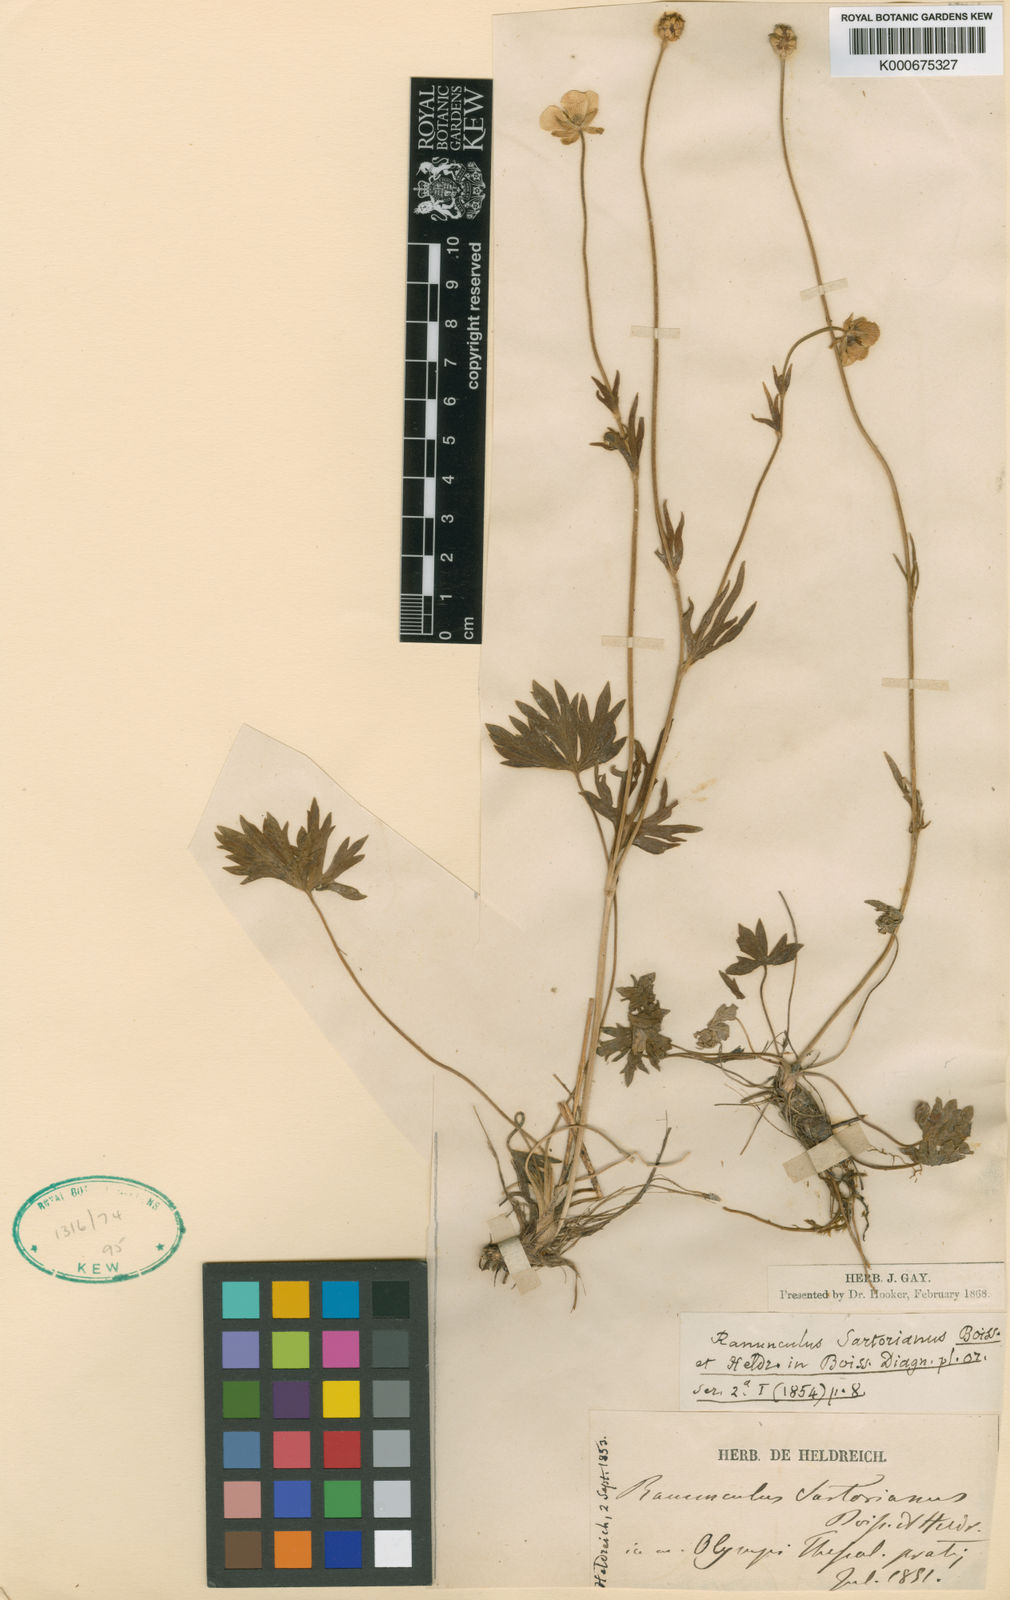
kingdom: Plantae
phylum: Tracheophyta
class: Magnoliopsida
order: Ranunculales
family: Ranunculaceae
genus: Ranunculus
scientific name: Ranunculus sartorianus
